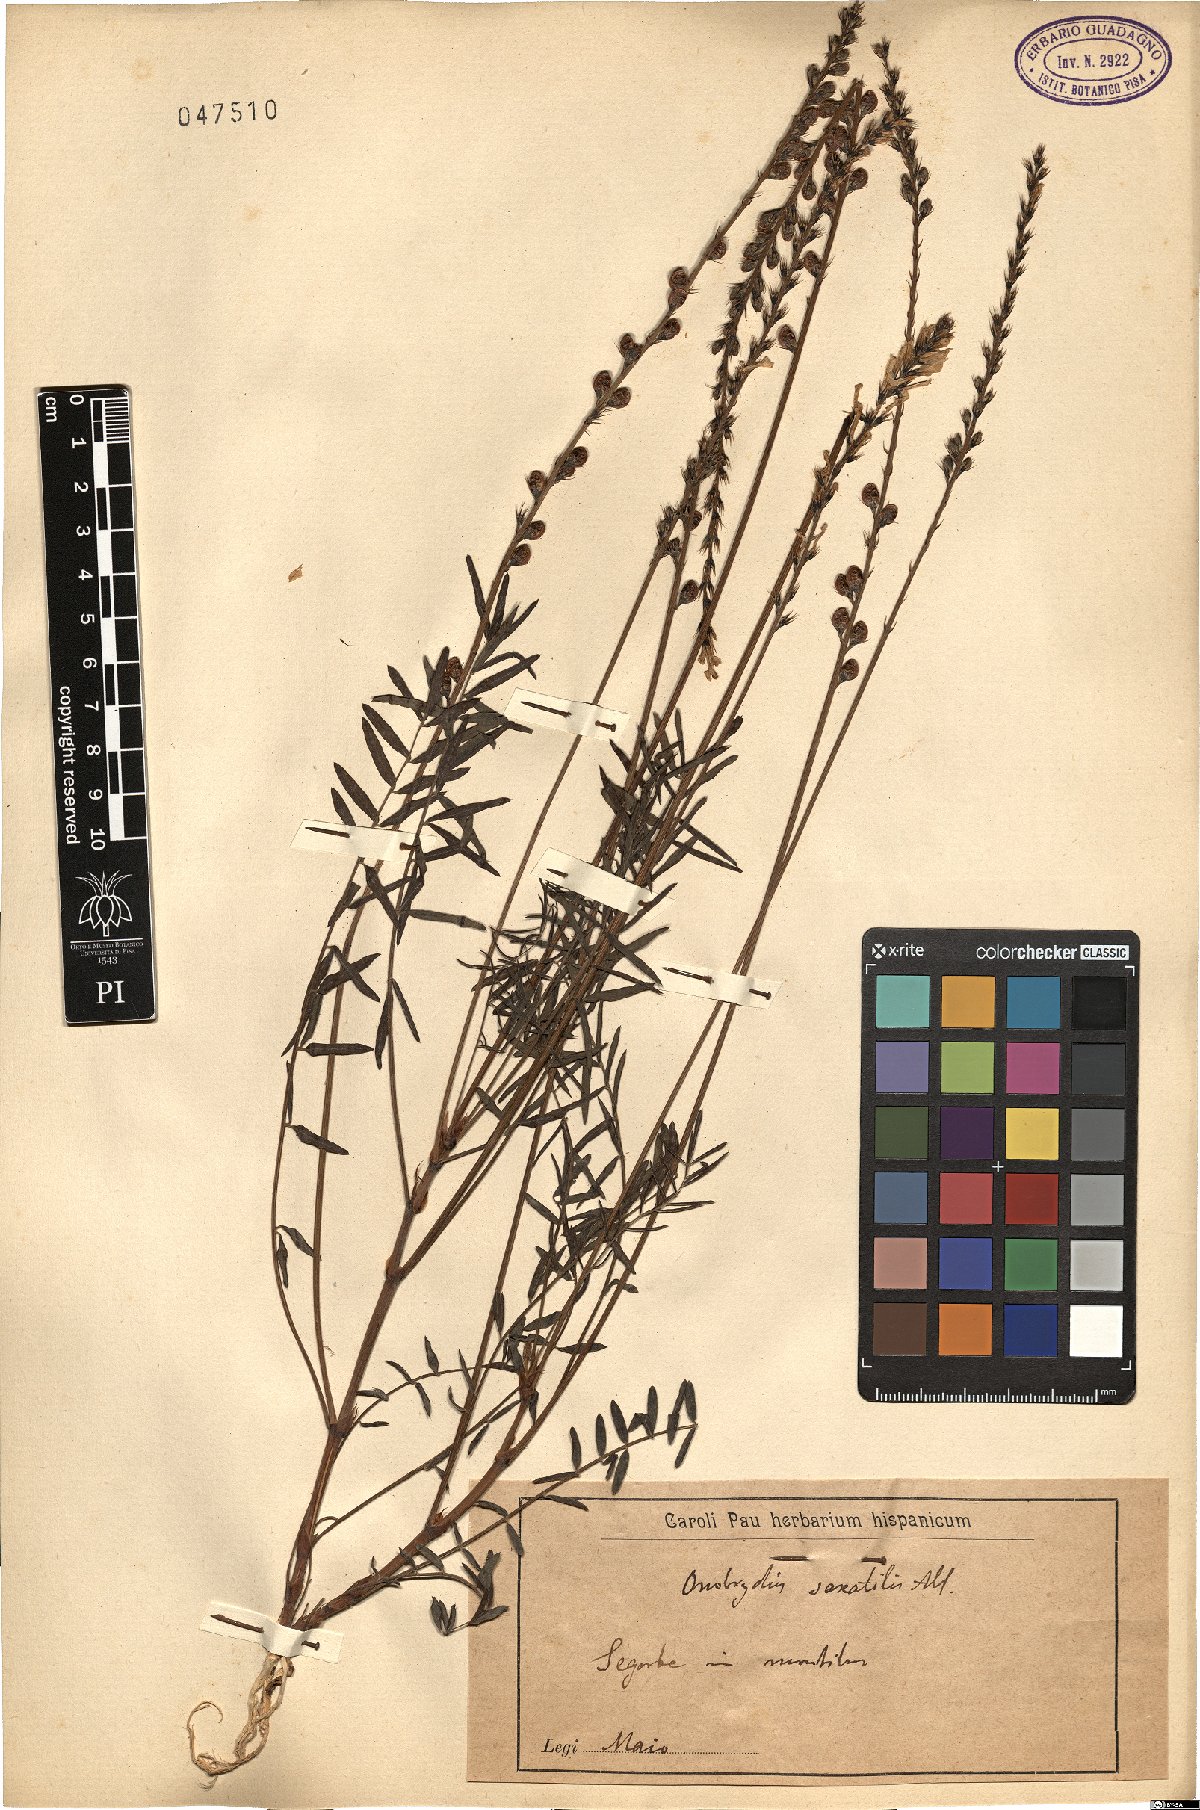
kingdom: Plantae
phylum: Tracheophyta
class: Magnoliopsida
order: Fabales
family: Fabaceae
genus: Onobrychis
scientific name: Onobrychis saxatilis
